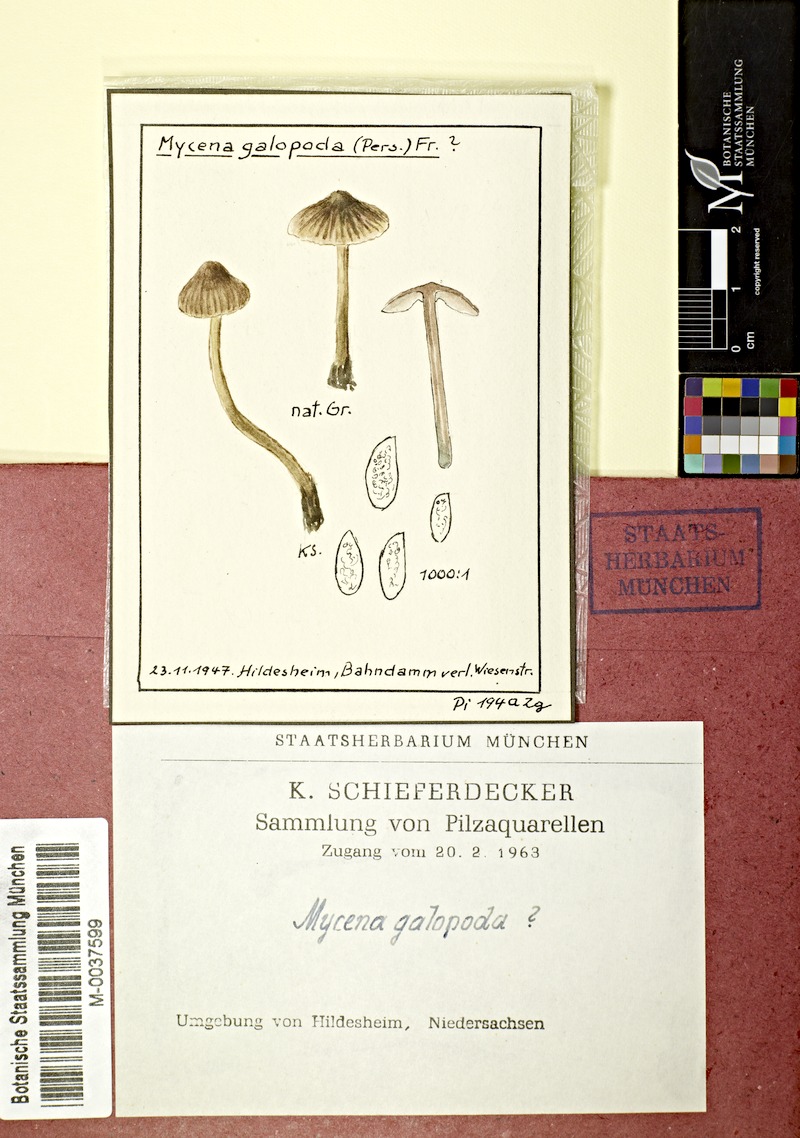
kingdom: Fungi
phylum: Basidiomycota
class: Agaricomycetes
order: Agaricales
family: Mycenaceae
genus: Mycena
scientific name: Mycena galopus
